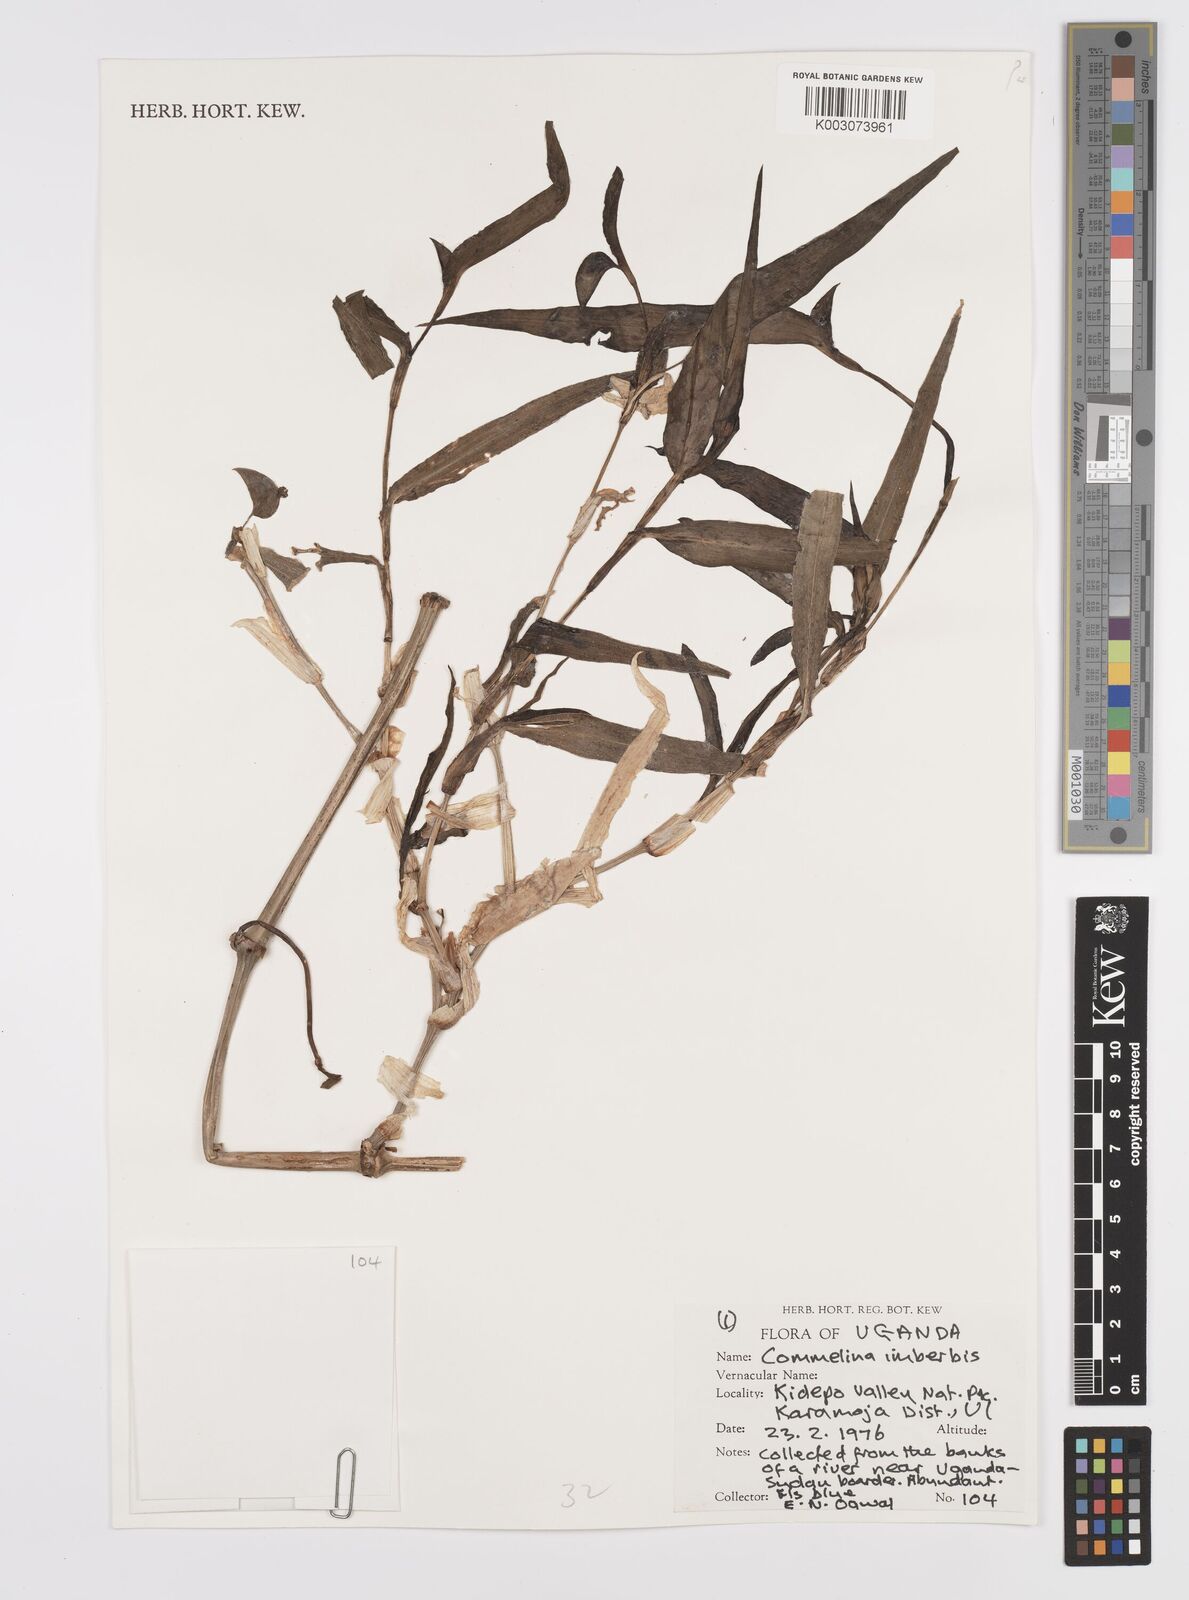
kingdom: Plantae
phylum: Tracheophyta
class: Liliopsida
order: Commelinales
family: Commelinaceae
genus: Commelina
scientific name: Commelina imberbis
